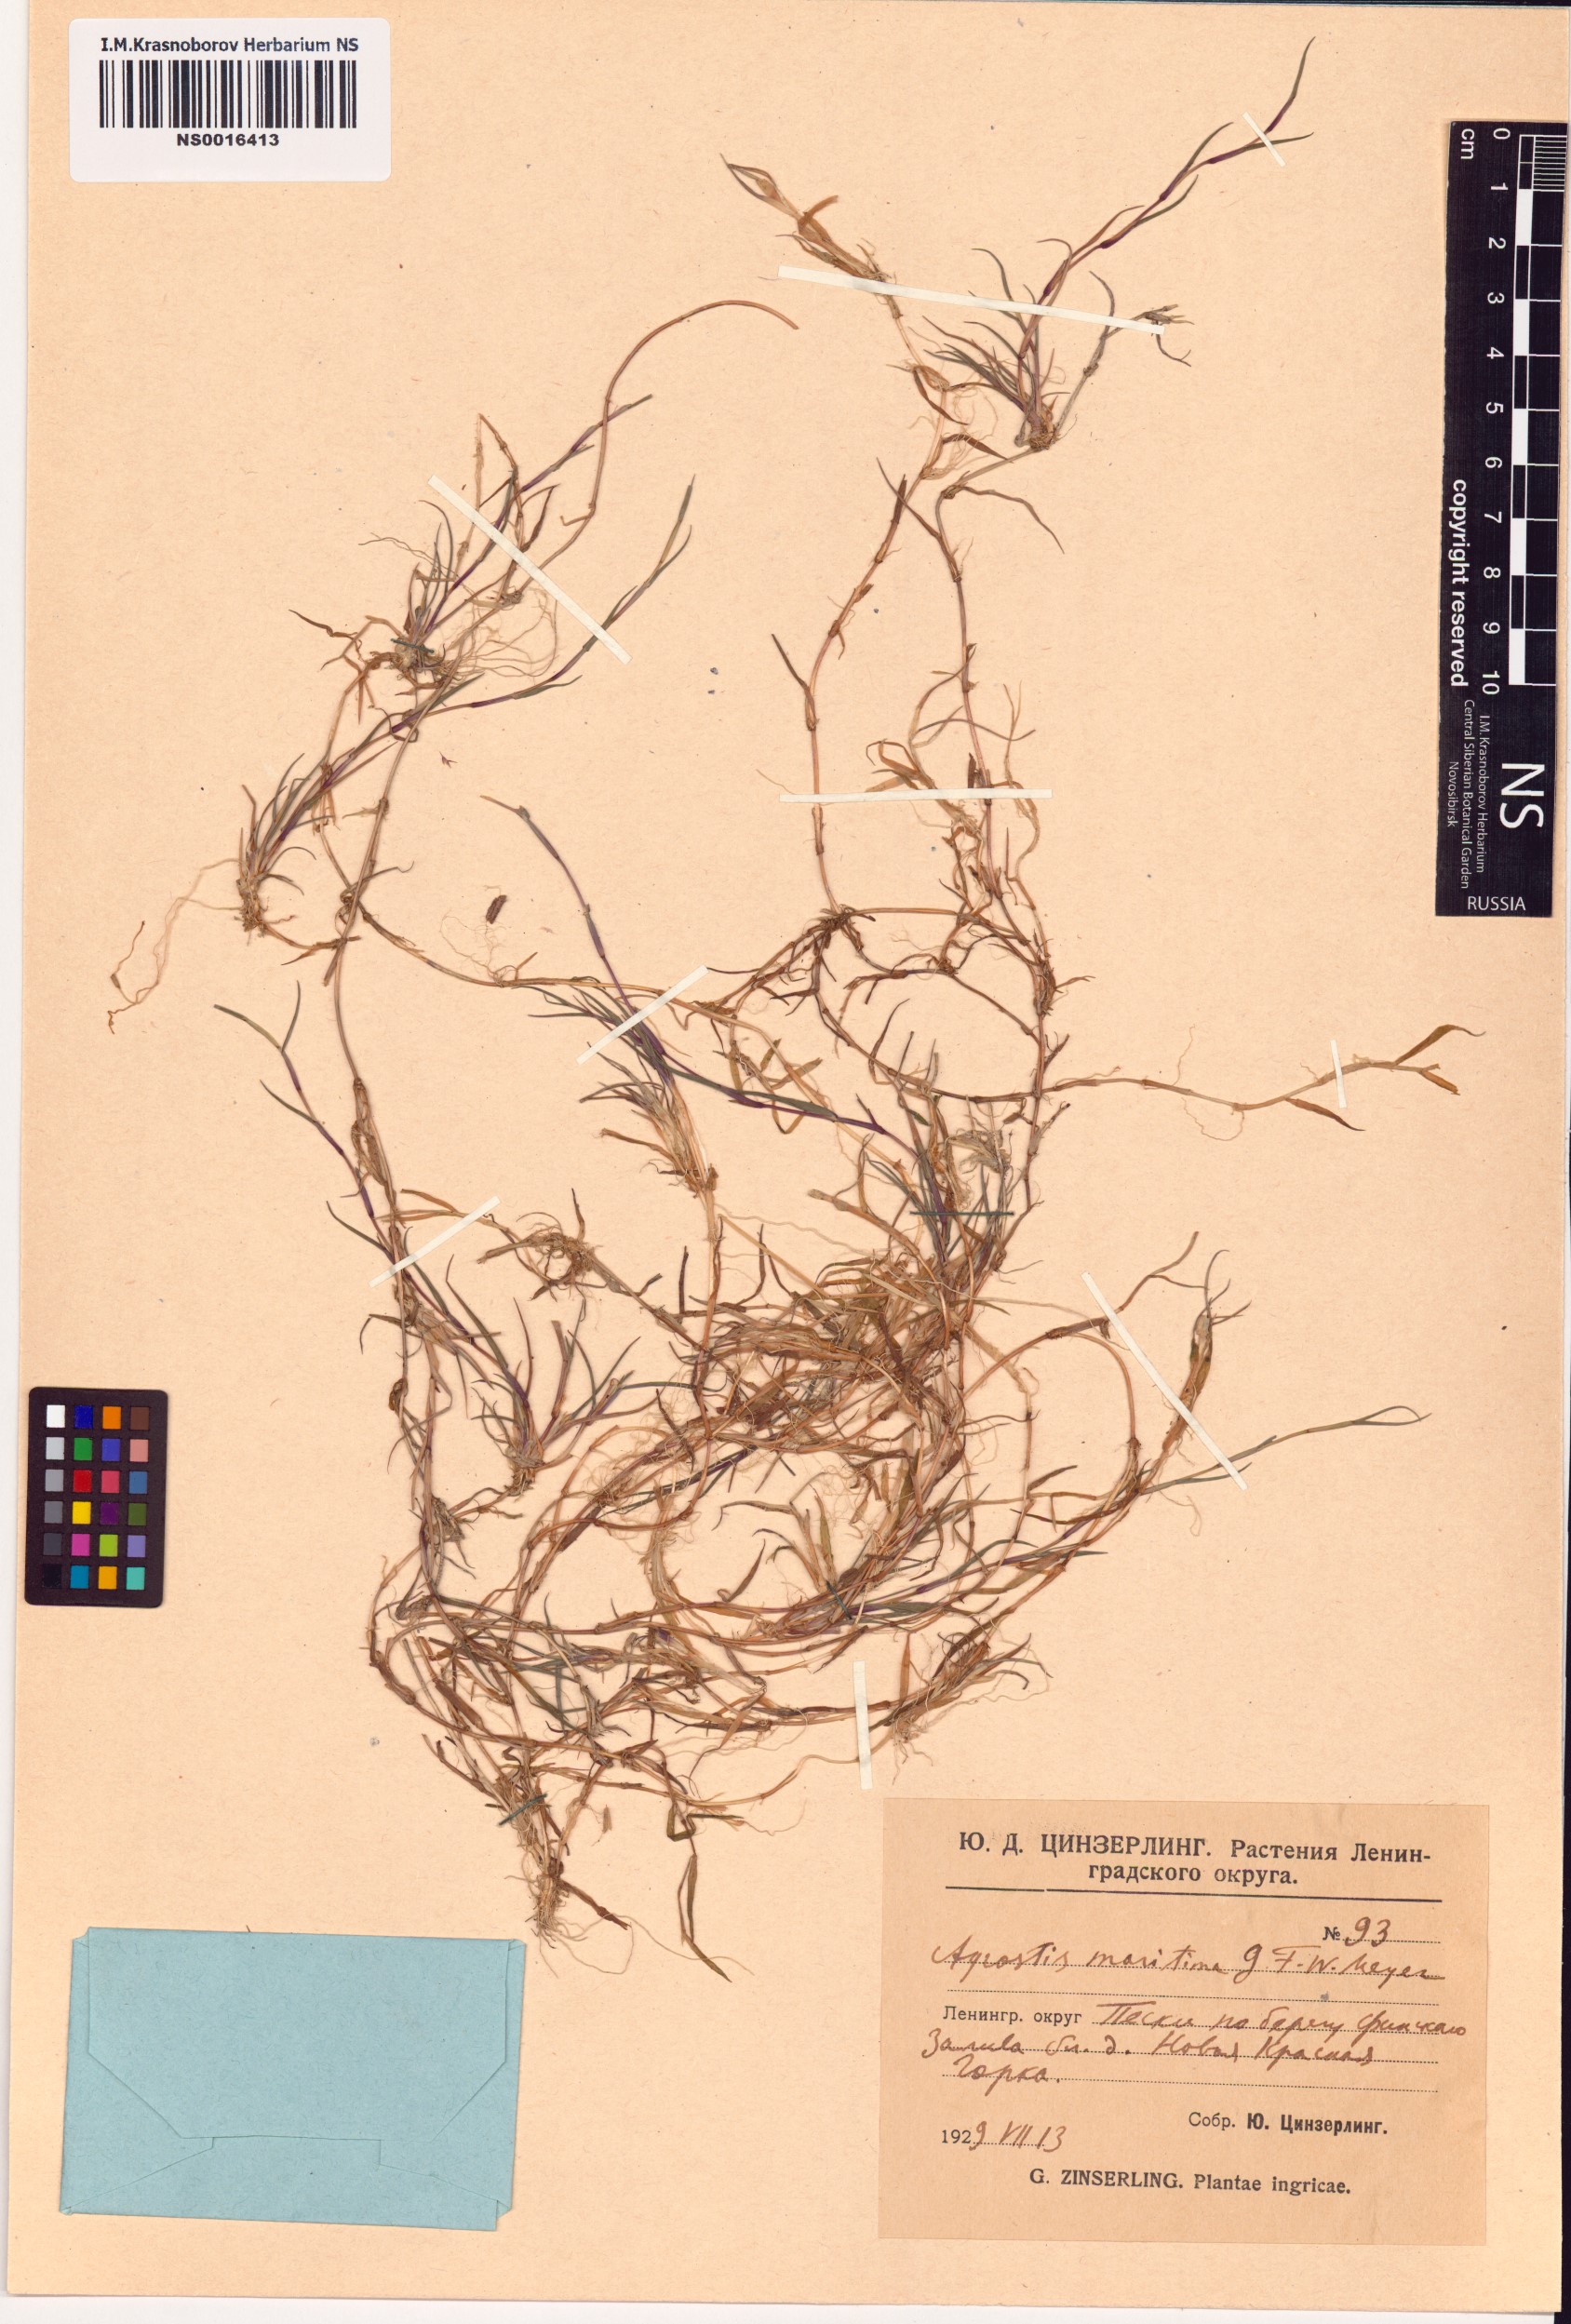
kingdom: Plantae
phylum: Tracheophyta
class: Liliopsida
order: Poales
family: Poaceae
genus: Agrostis
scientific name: Agrostis stolonifera
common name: Creeping bentgrass
